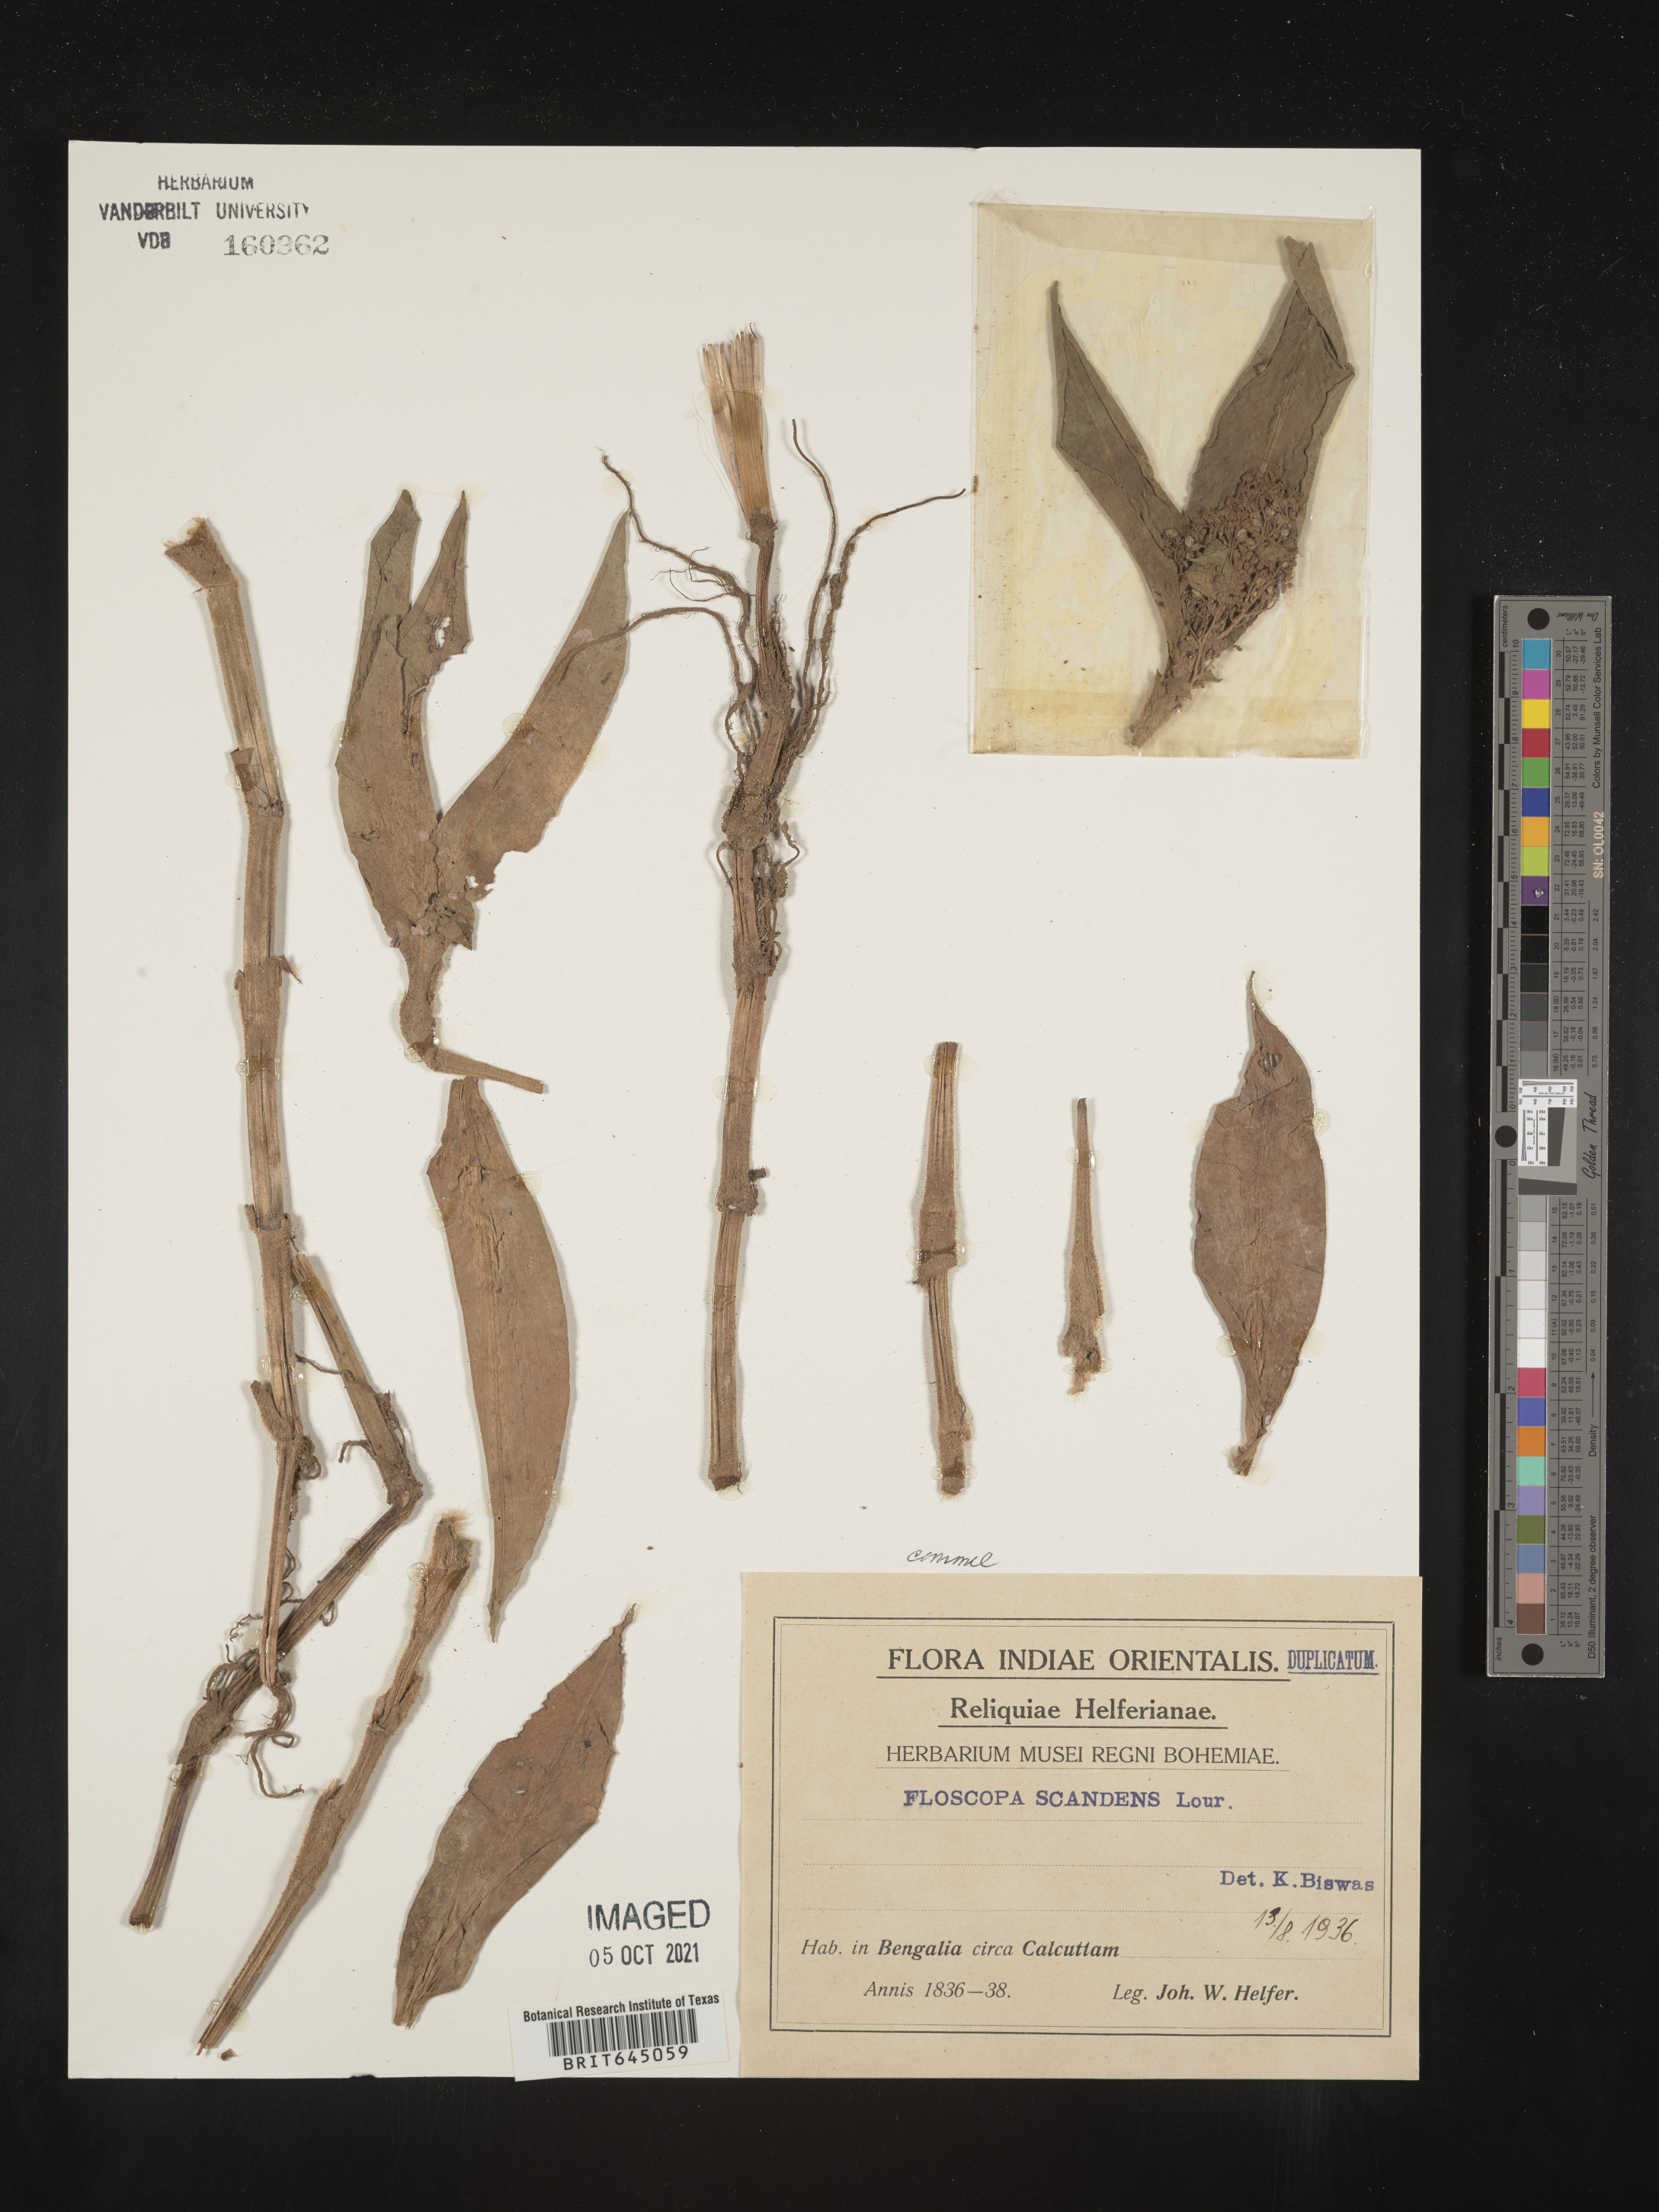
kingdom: Plantae
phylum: Tracheophyta
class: Liliopsida
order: Commelinales
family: Commelinaceae
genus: Floscopa
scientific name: Floscopa scandens
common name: Climbing flower cup
